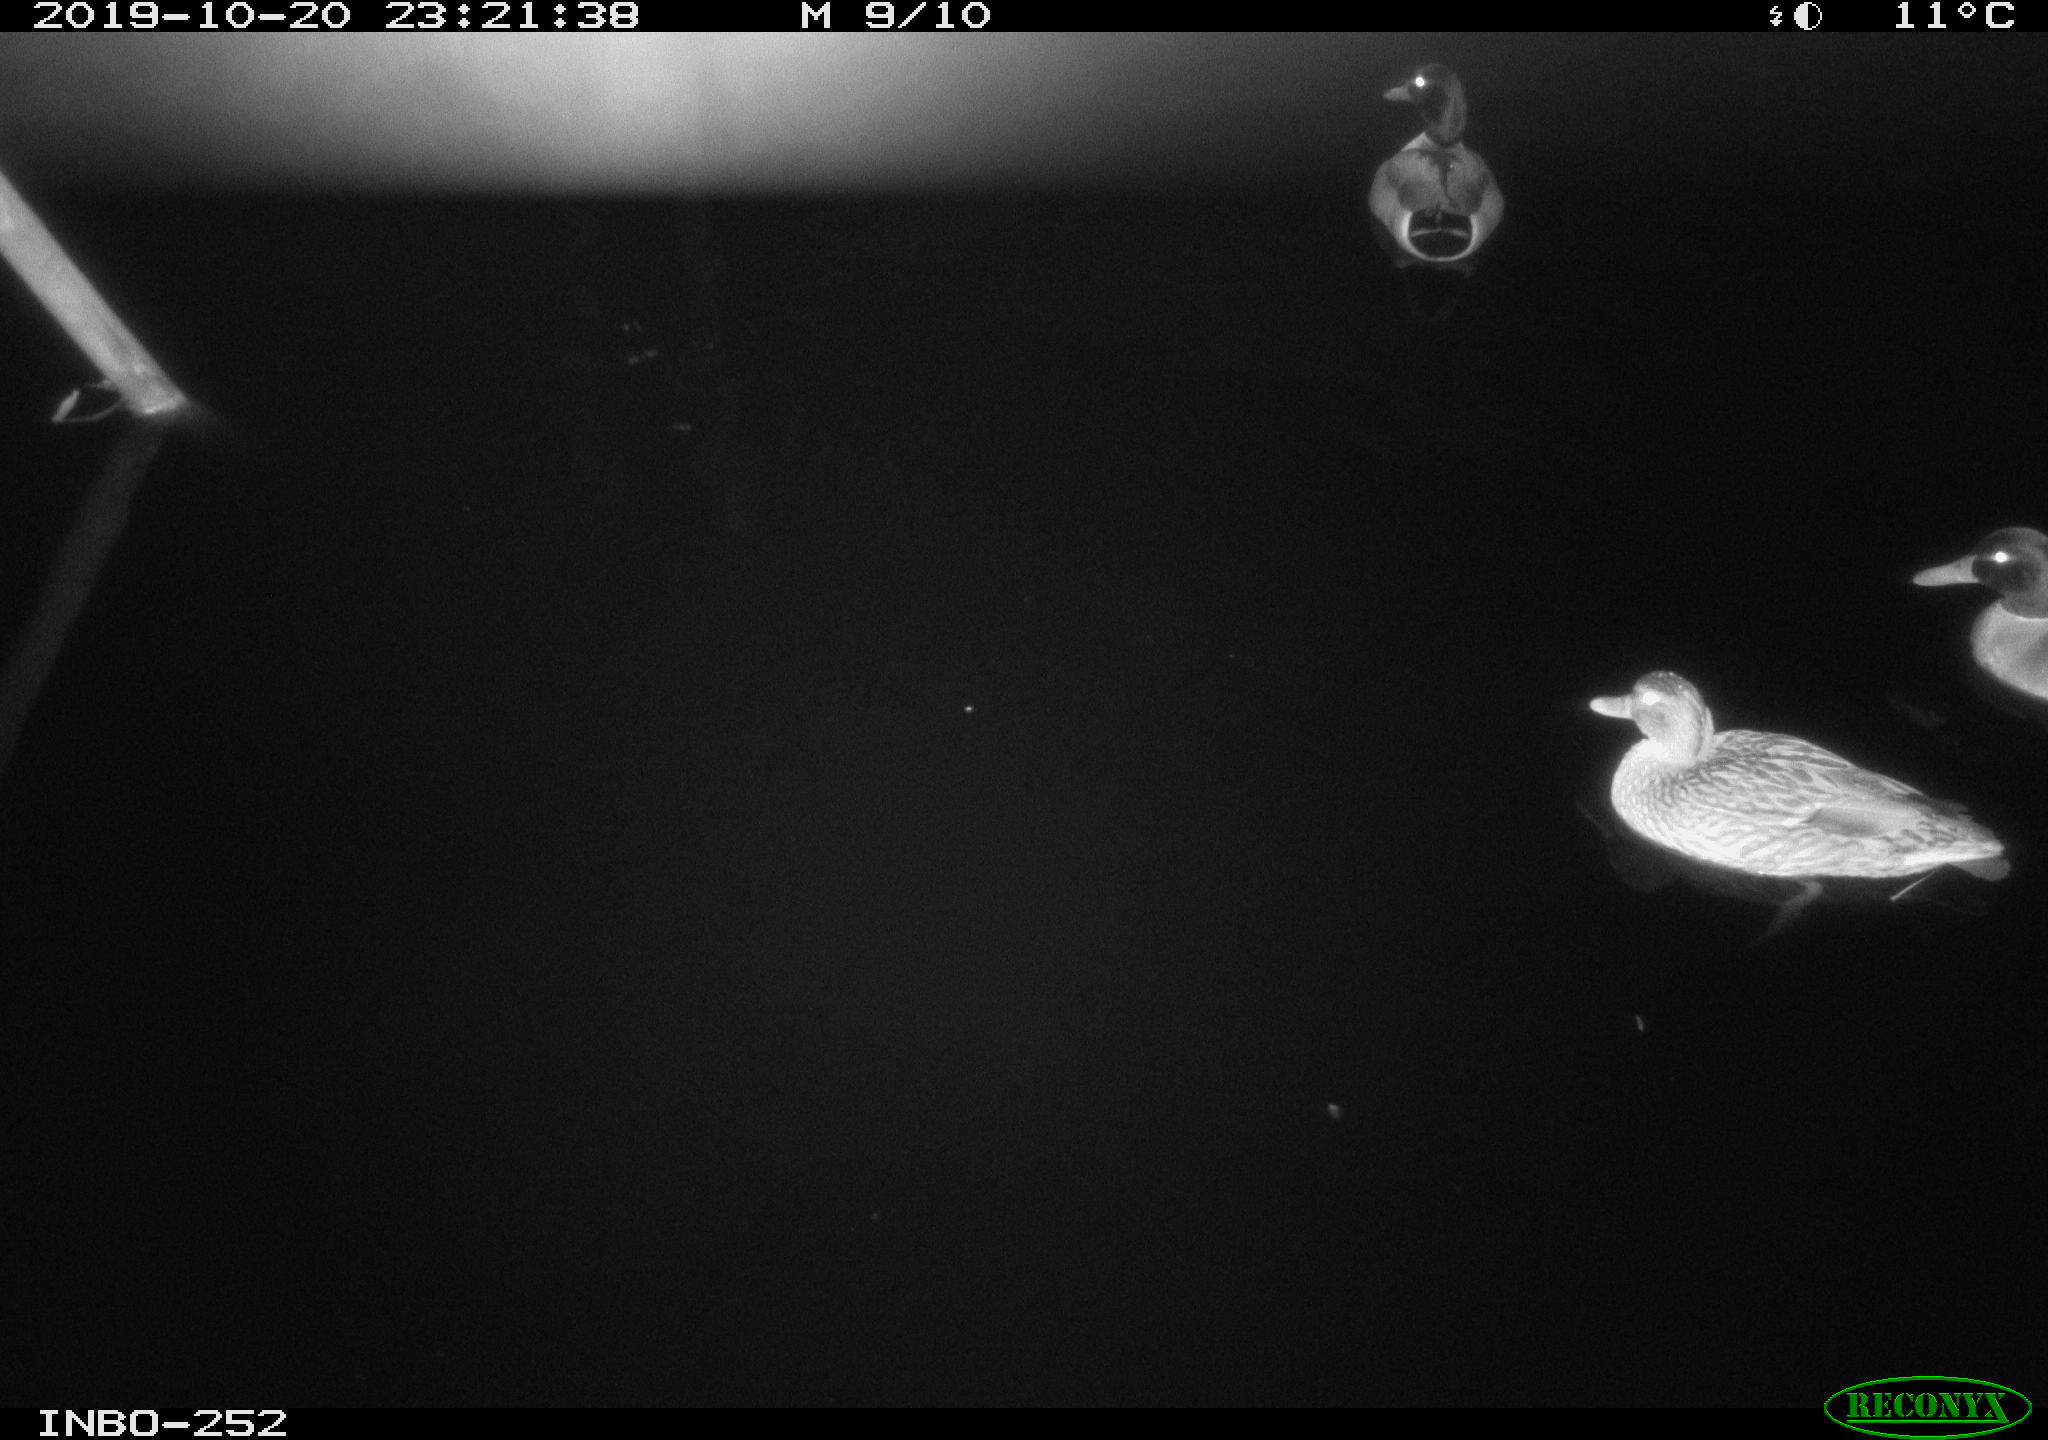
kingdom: Animalia
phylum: Chordata
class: Aves
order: Anseriformes
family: Anatidae
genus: Anas
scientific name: Anas platyrhynchos
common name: Mallard
